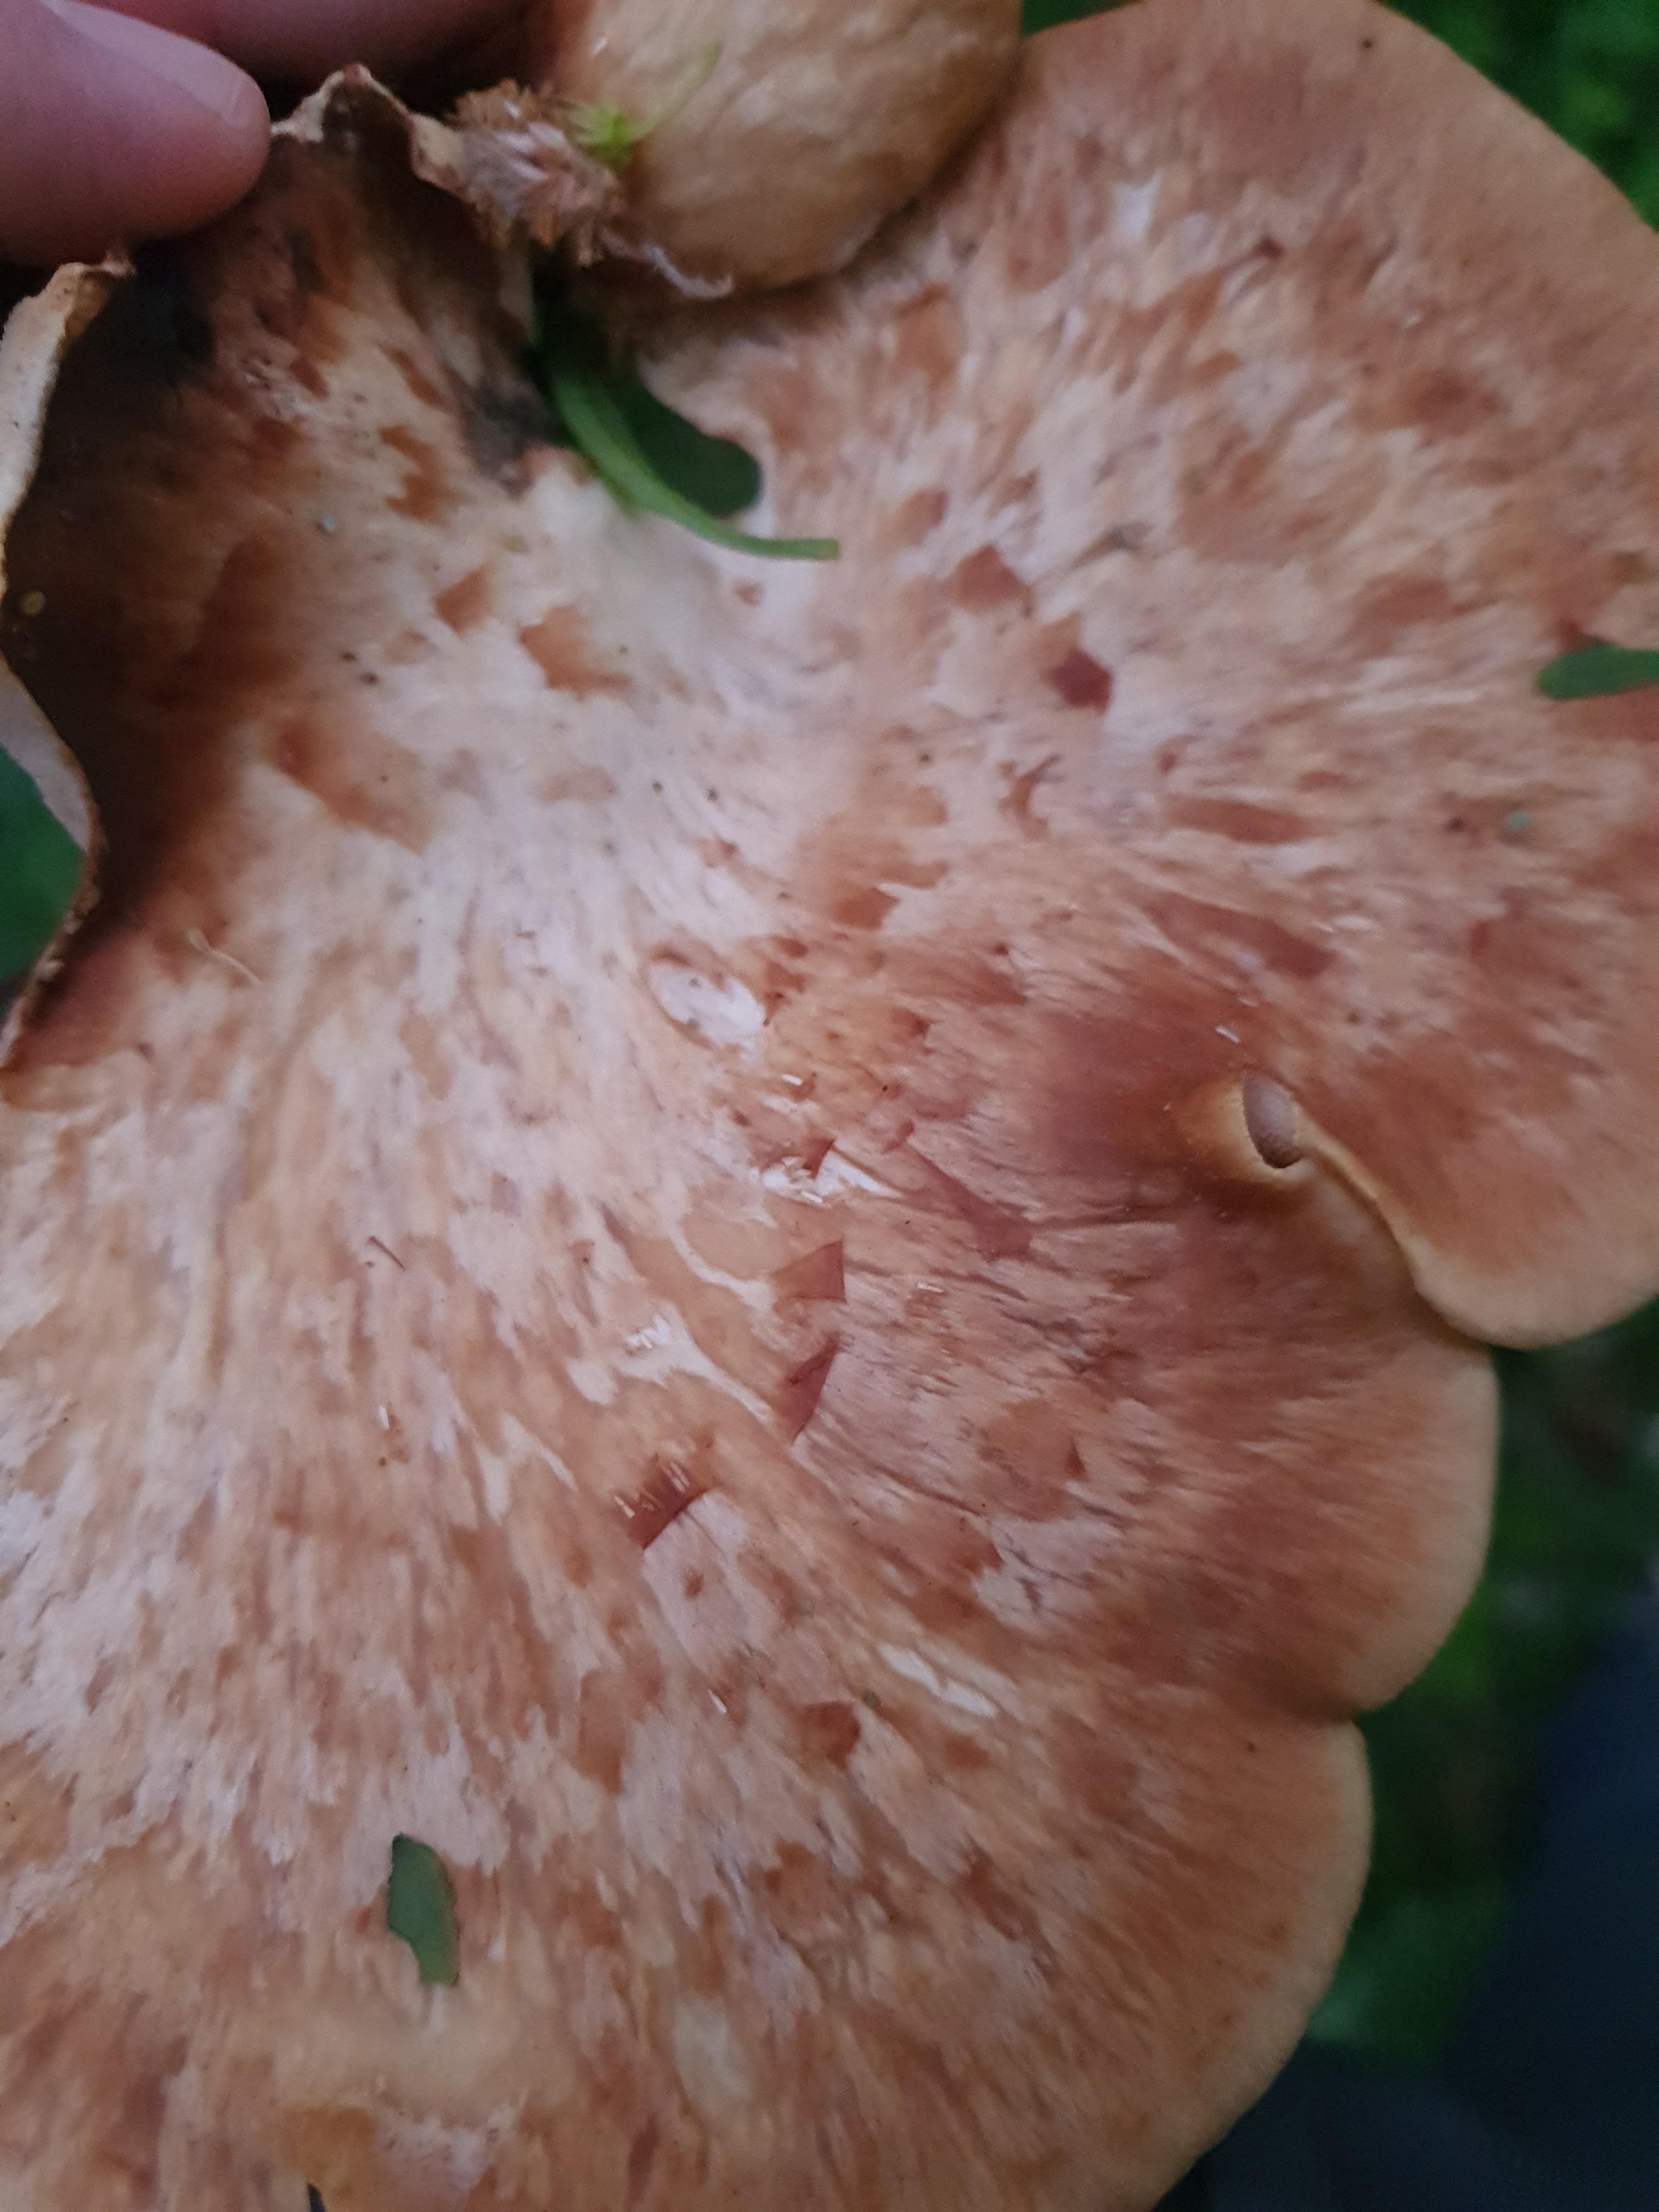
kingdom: Fungi
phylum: Basidiomycota
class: Agaricomycetes
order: Polyporales
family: Polyporaceae
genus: Cerioporus
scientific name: Cerioporus squamosus
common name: skællet stilkporesvamp
